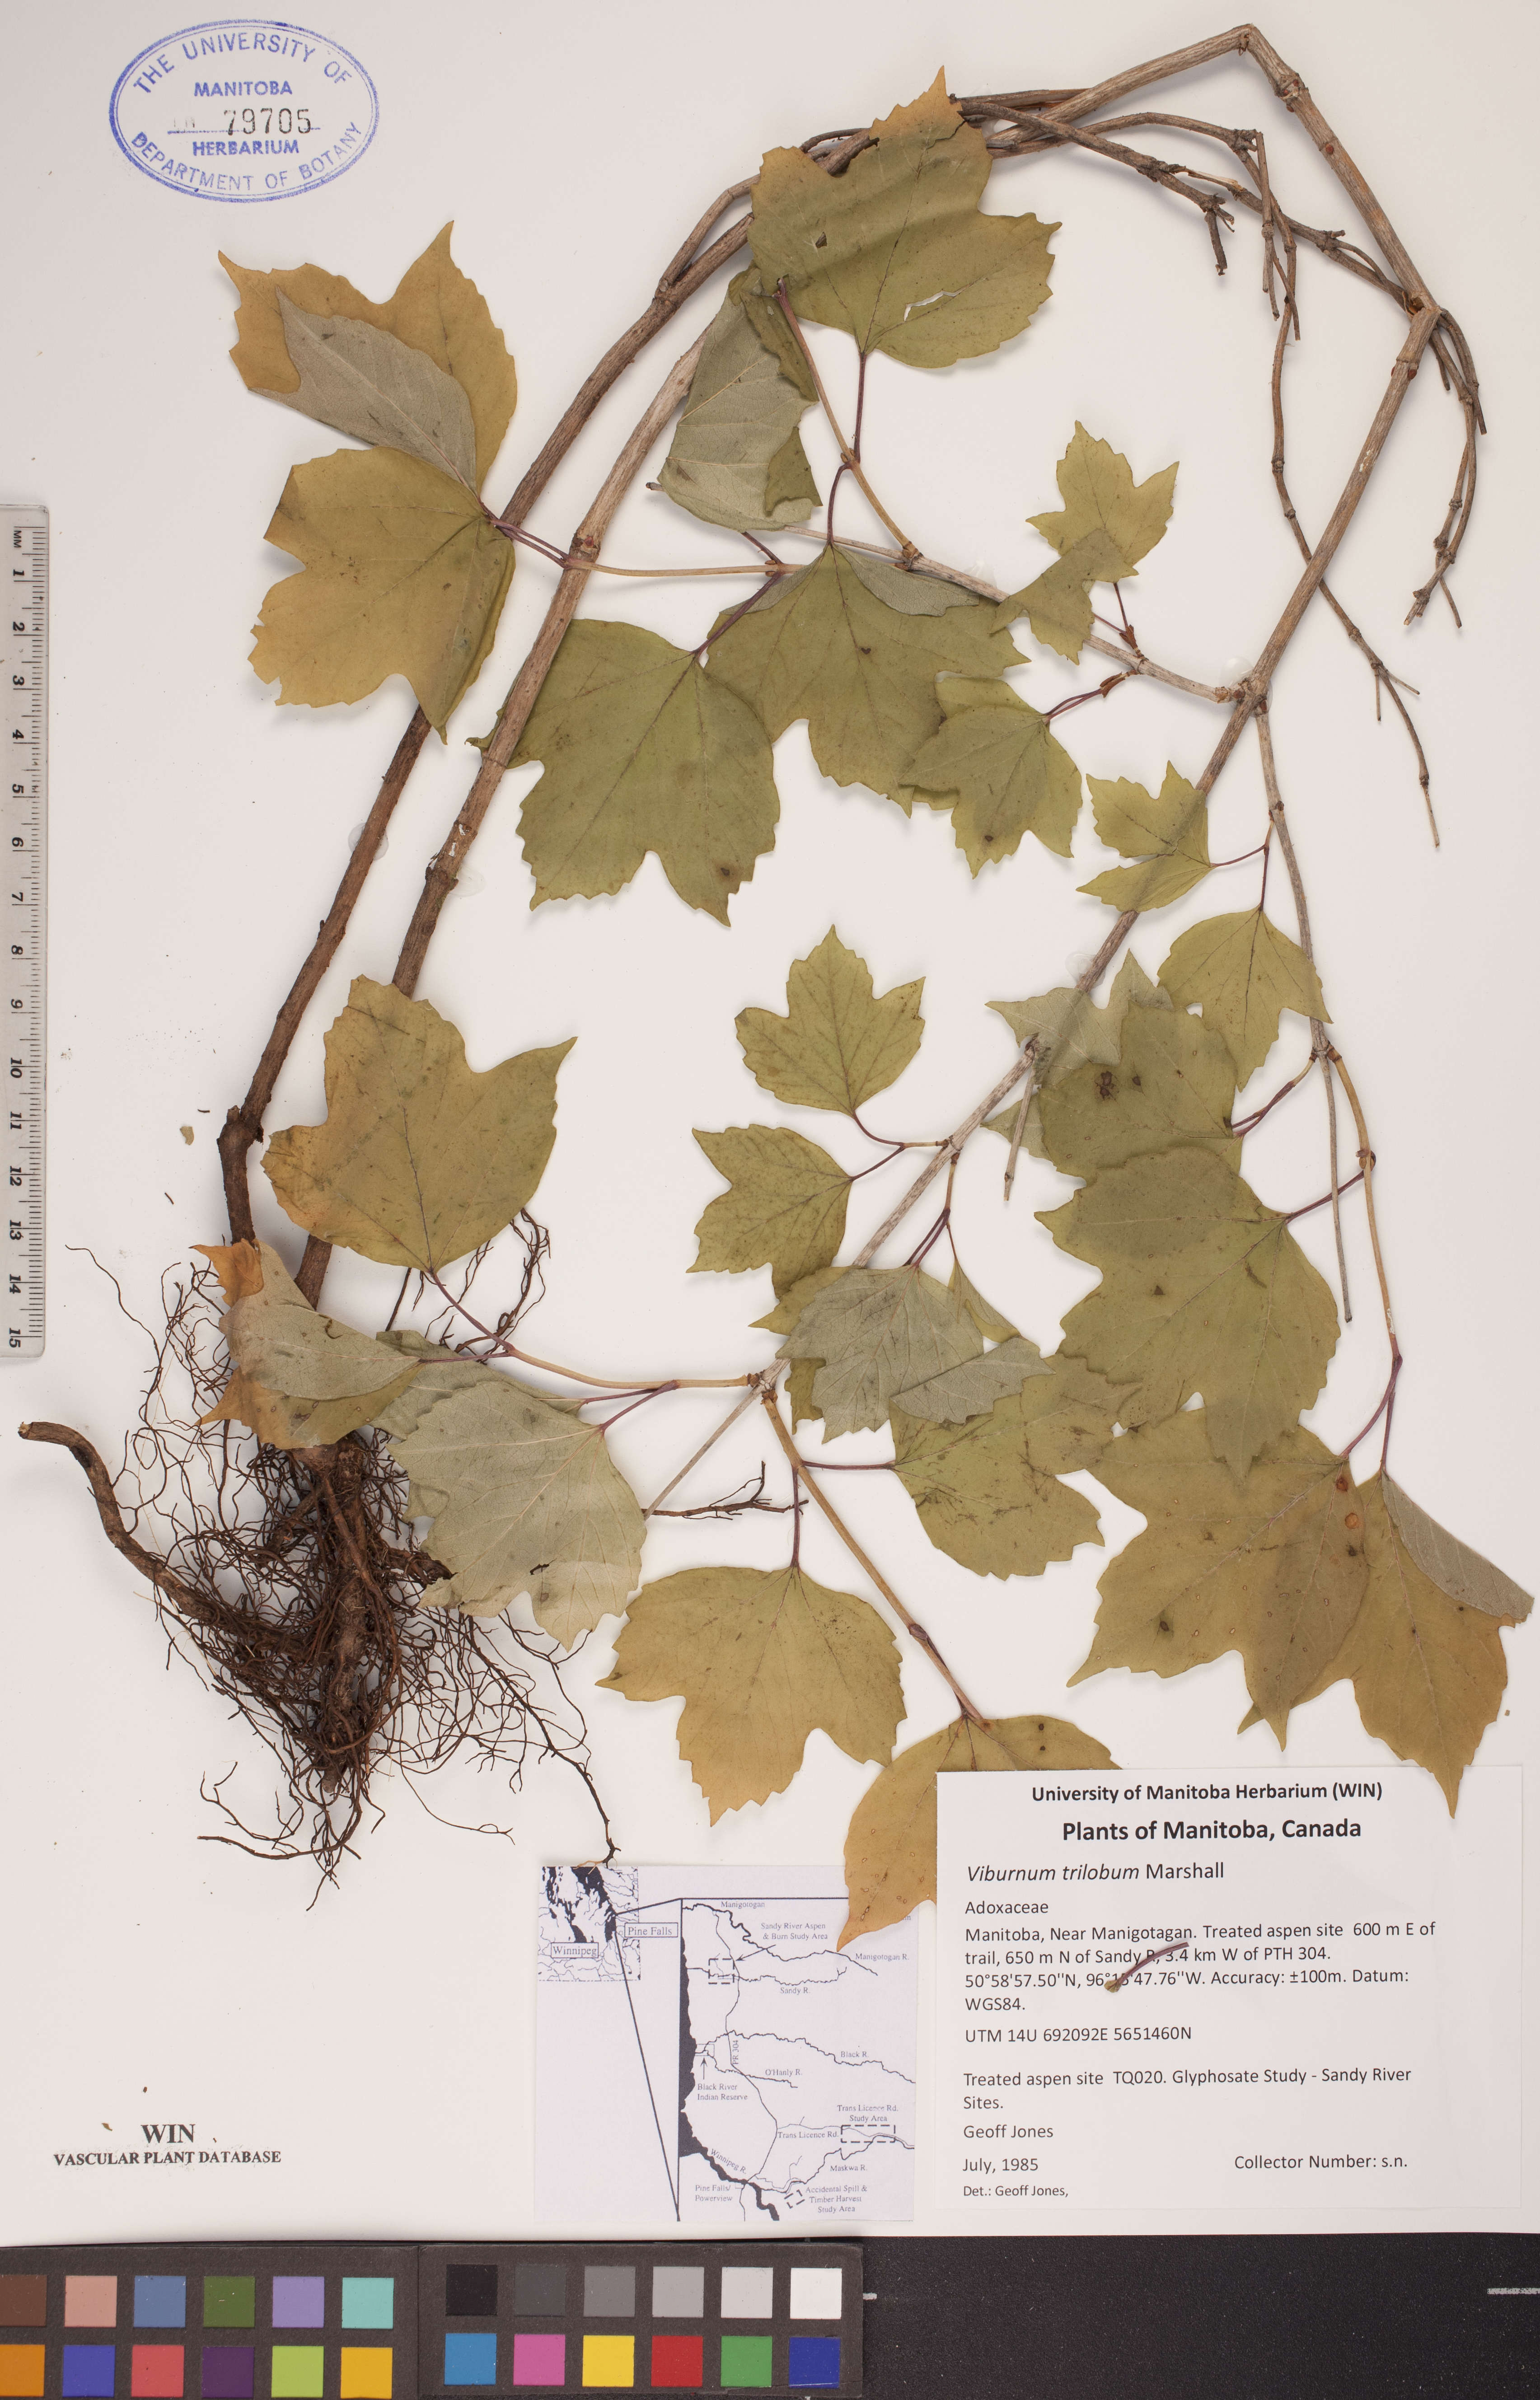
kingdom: Plantae
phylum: Tracheophyta
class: Magnoliopsida
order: Dipsacales
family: Viburnaceae
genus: Viburnum
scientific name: Viburnum trilobum
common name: American cranberrybush
